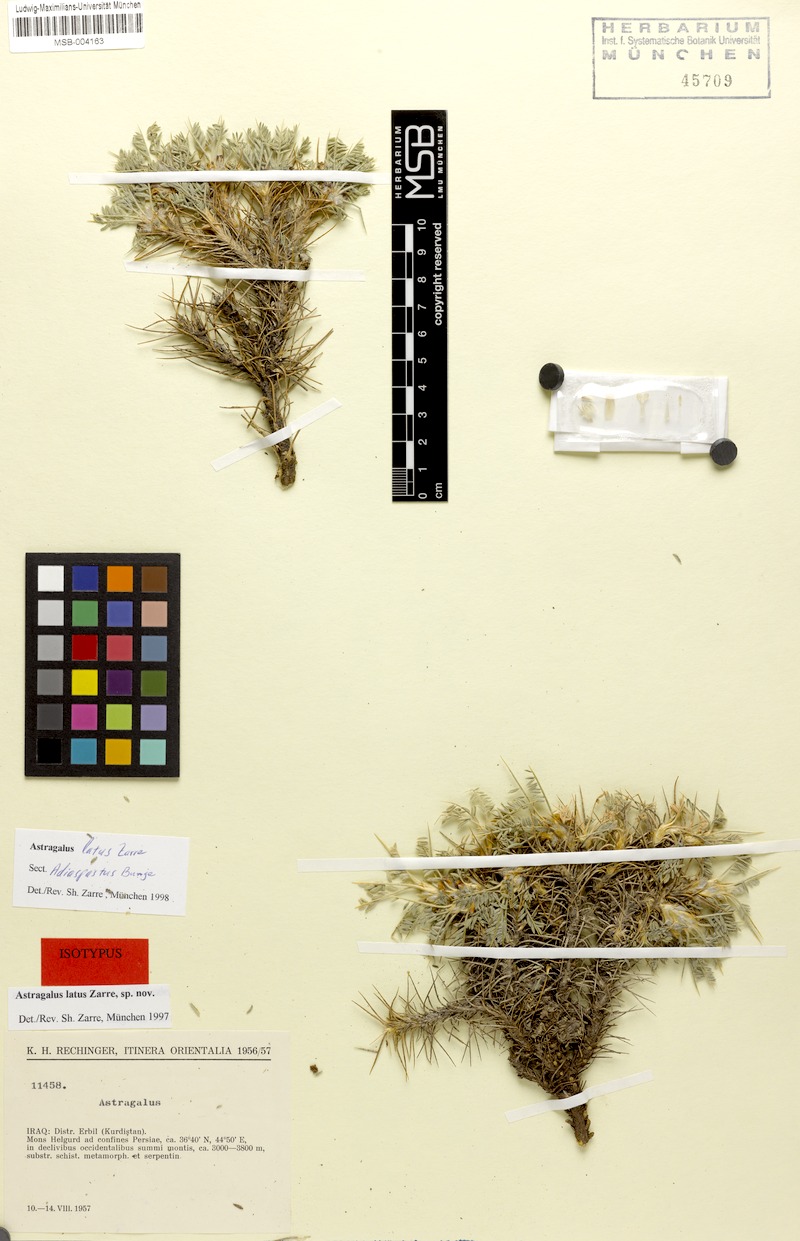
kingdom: Plantae
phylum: Tracheophyta
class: Magnoliopsida
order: Fabales
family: Fabaceae
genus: Astragalus
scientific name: Astragalus latusioides
